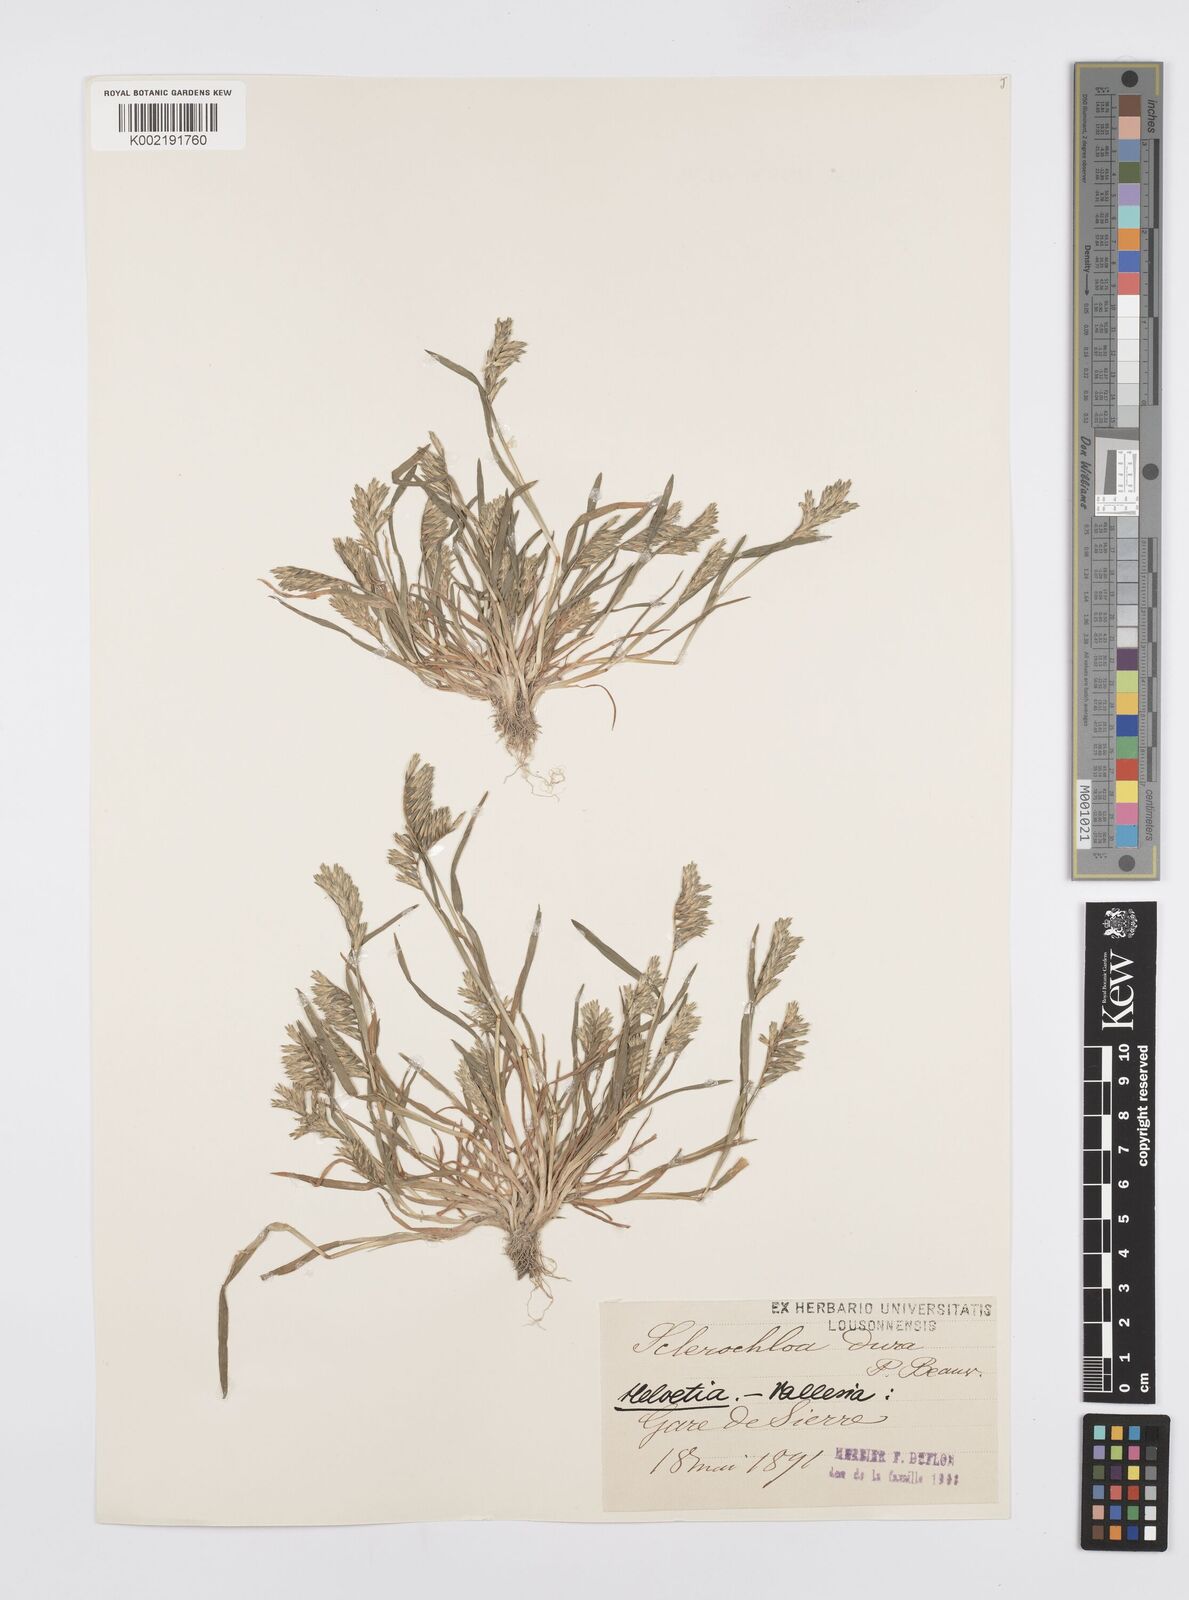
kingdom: Plantae
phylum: Tracheophyta
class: Liliopsida
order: Poales
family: Poaceae
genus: Sclerochloa
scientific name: Sclerochloa dura
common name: Common hardgrass
